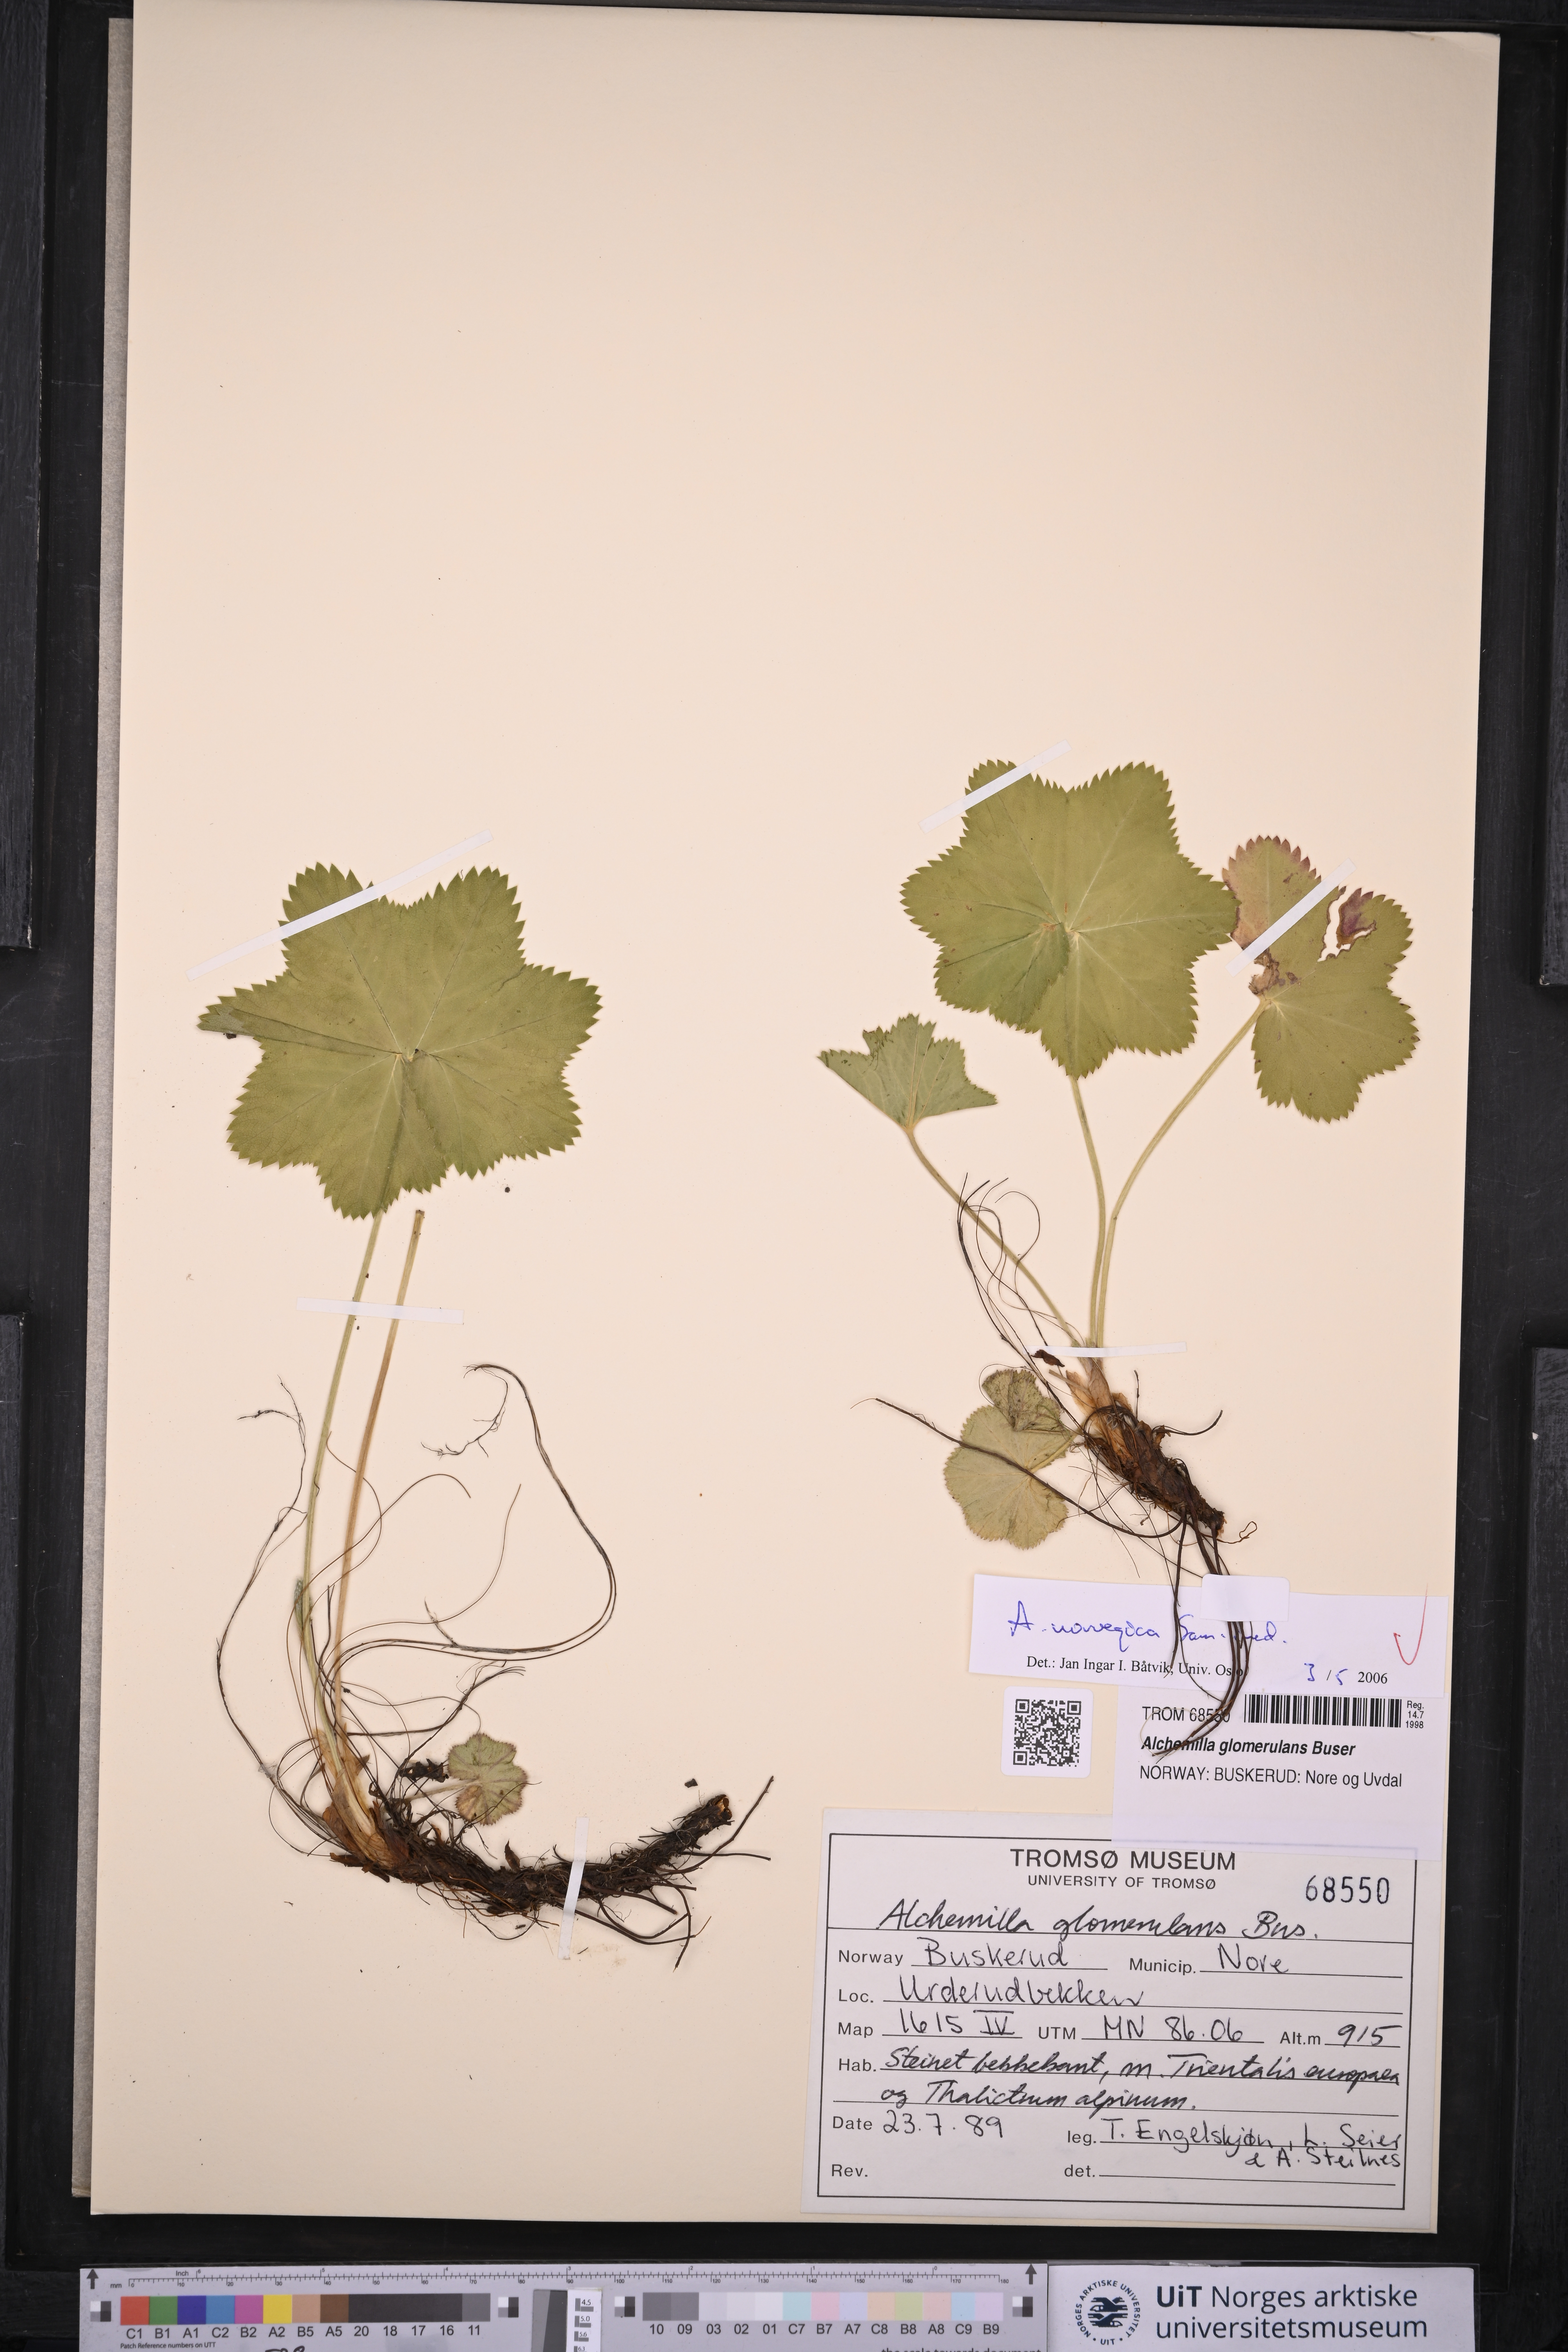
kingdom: Plantae
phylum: Tracheophyta
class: Magnoliopsida
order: Rosales
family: Rosaceae
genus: Alchemilla
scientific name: Alchemilla norvegica
